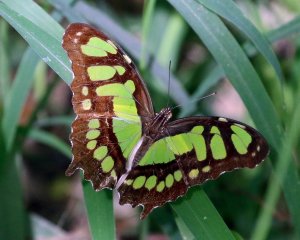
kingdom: Animalia
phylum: Arthropoda
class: Insecta
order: Lepidoptera
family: Nymphalidae
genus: Siproeta
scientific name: Siproeta stelenes
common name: Malachite
